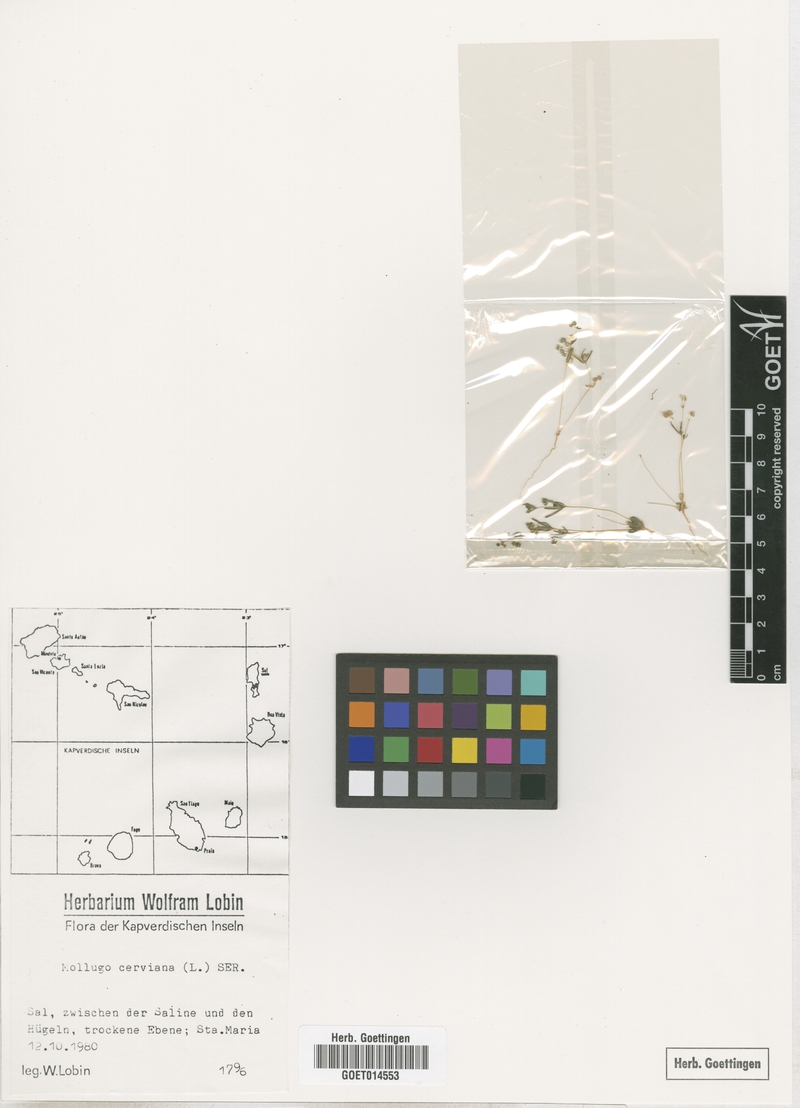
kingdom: Plantae
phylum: Tracheophyta
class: Magnoliopsida
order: Caryophyllales
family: Molluginaceae
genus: Hypertelis
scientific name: Hypertelis cerviana
